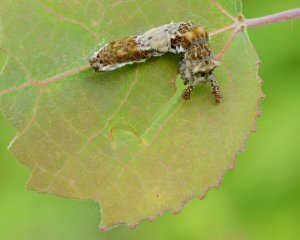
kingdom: Animalia
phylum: Arthropoda
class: Insecta
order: Lepidoptera
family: Nymphalidae
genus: Limenitis
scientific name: Limenitis archippus
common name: Viceroy
